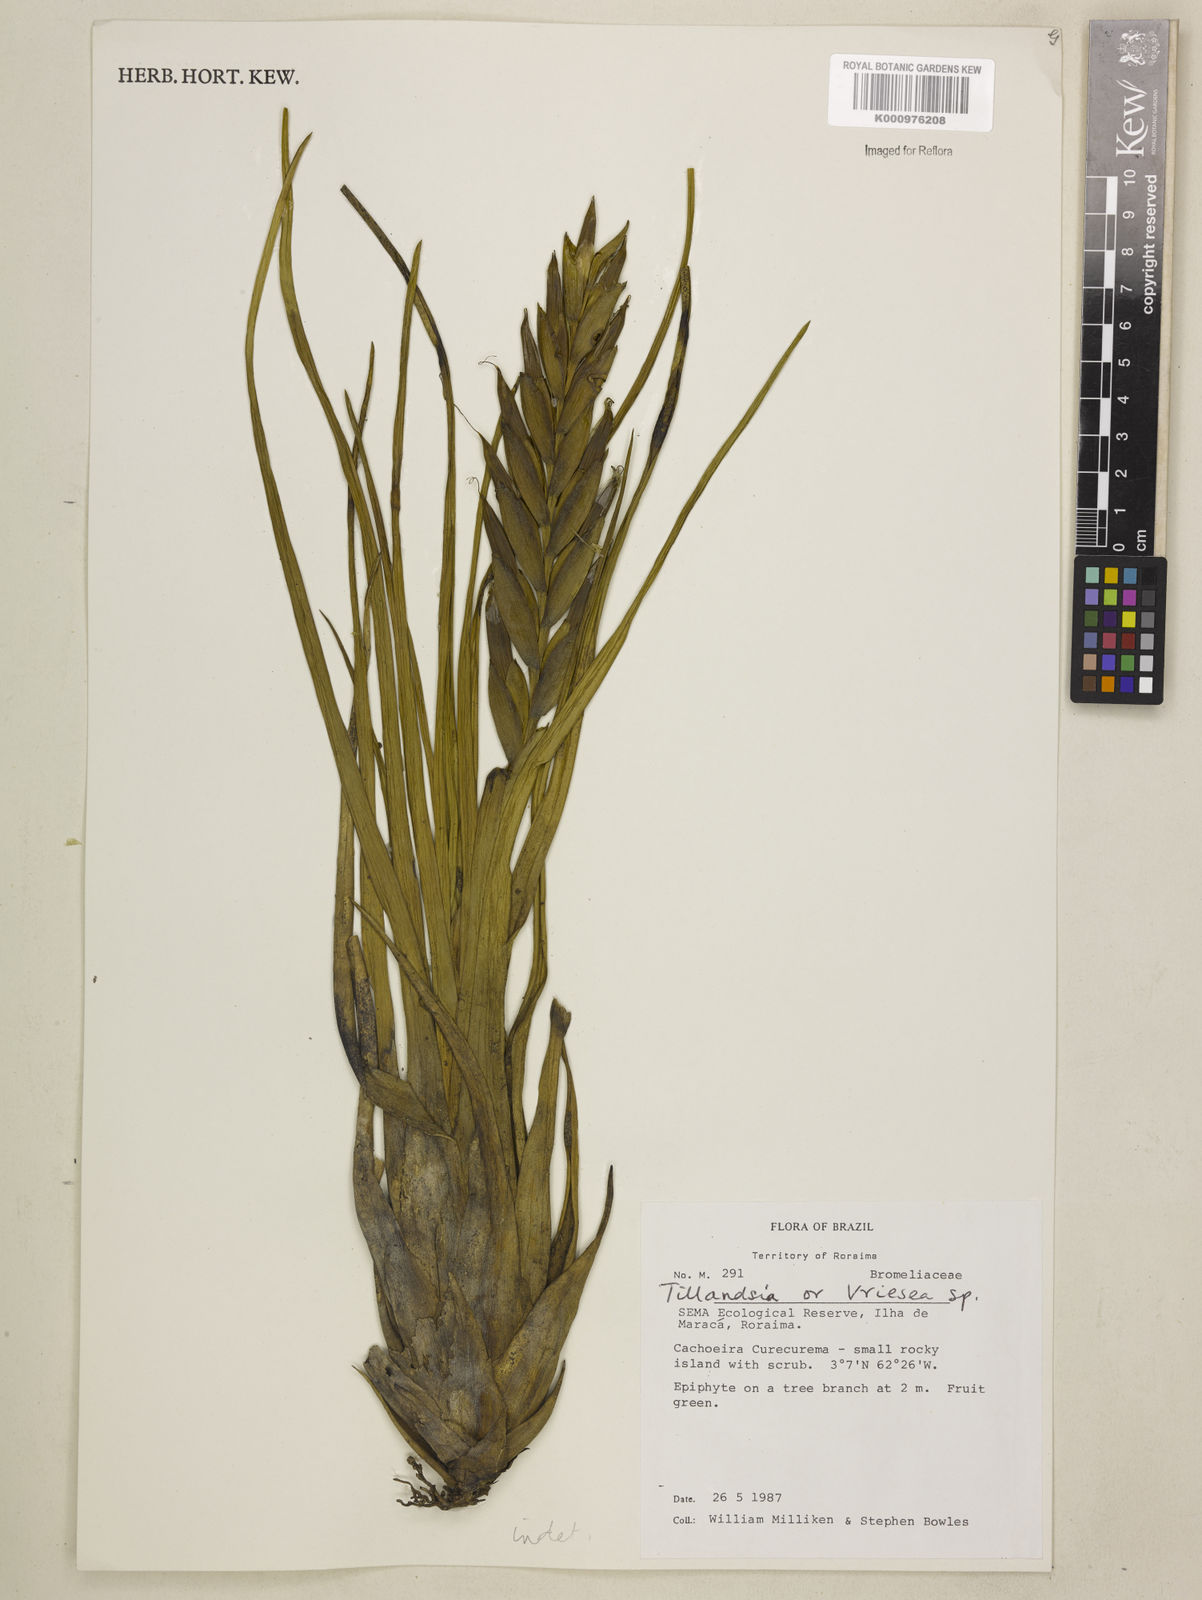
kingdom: Plantae
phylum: Tracheophyta
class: Liliopsida
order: Poales
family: Bromeliaceae
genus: Tillandsia
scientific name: Tillandsia
